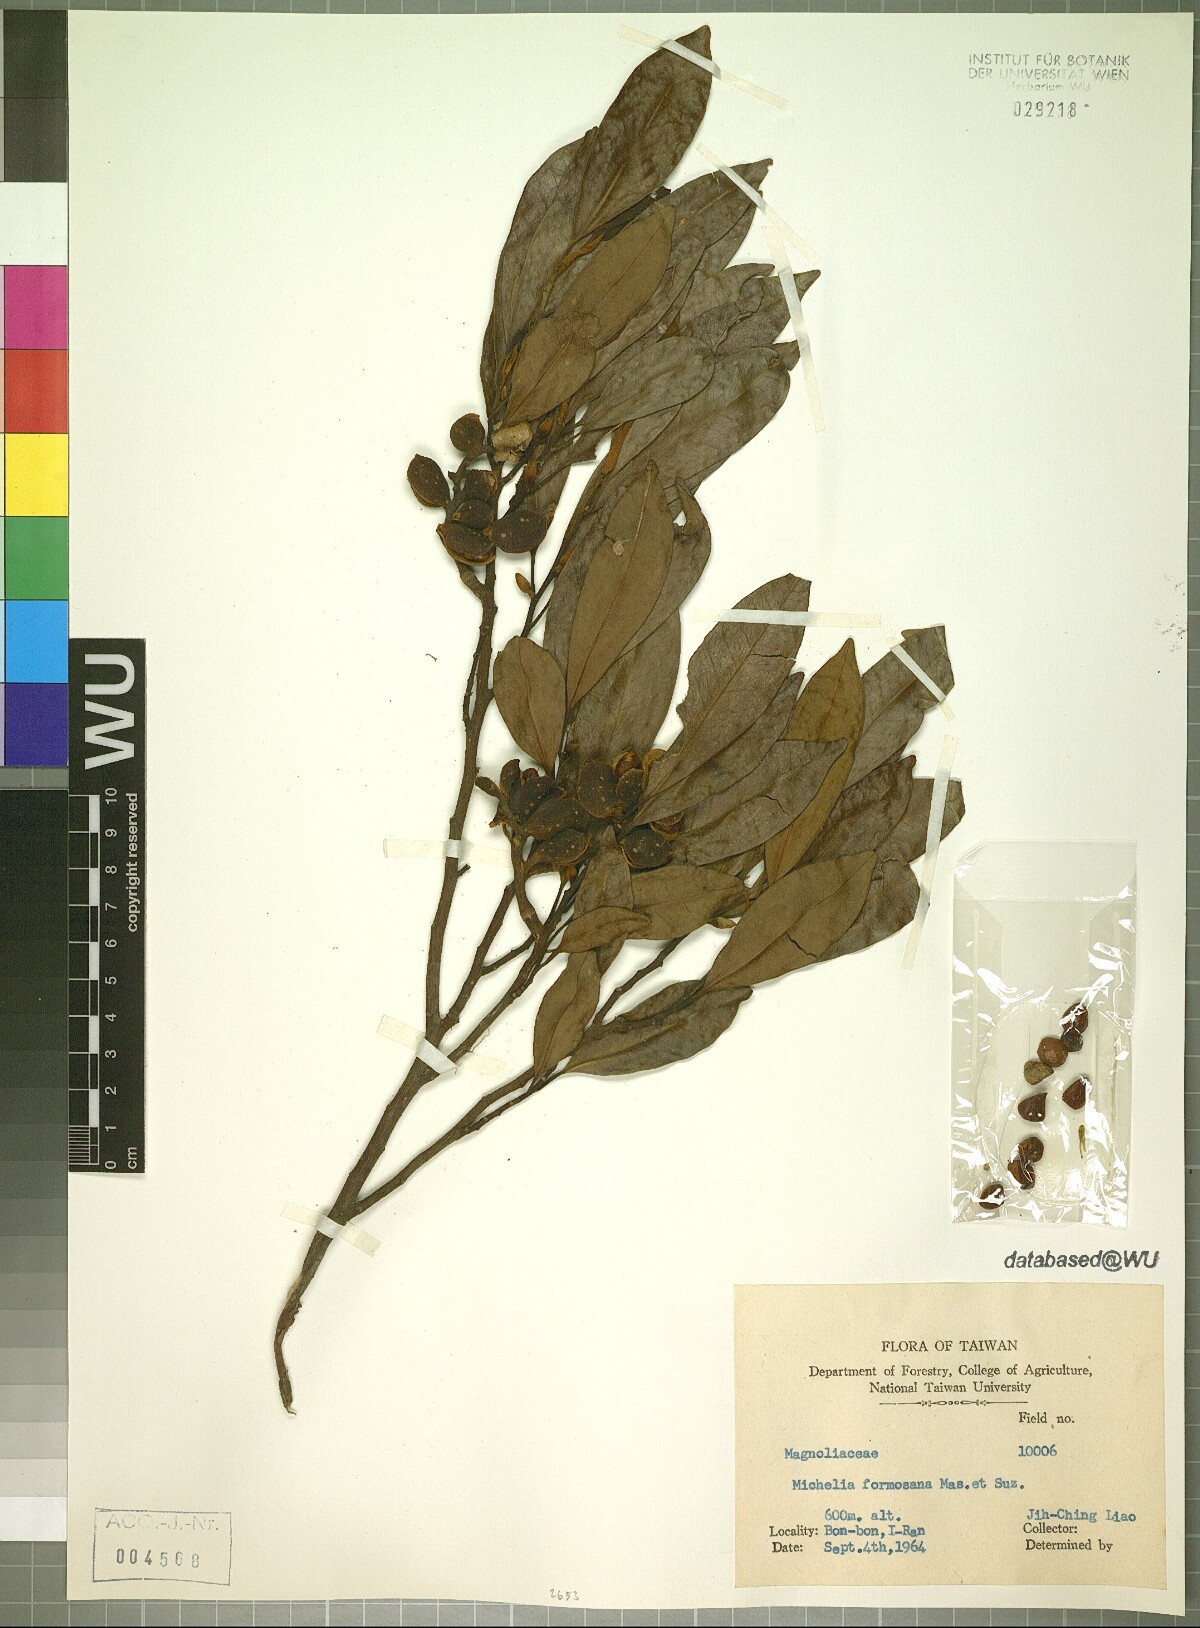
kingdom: Plantae
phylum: Tracheophyta
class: Magnoliopsida
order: Magnoliales
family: Magnoliaceae
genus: Magnolia
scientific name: Magnolia compressa
